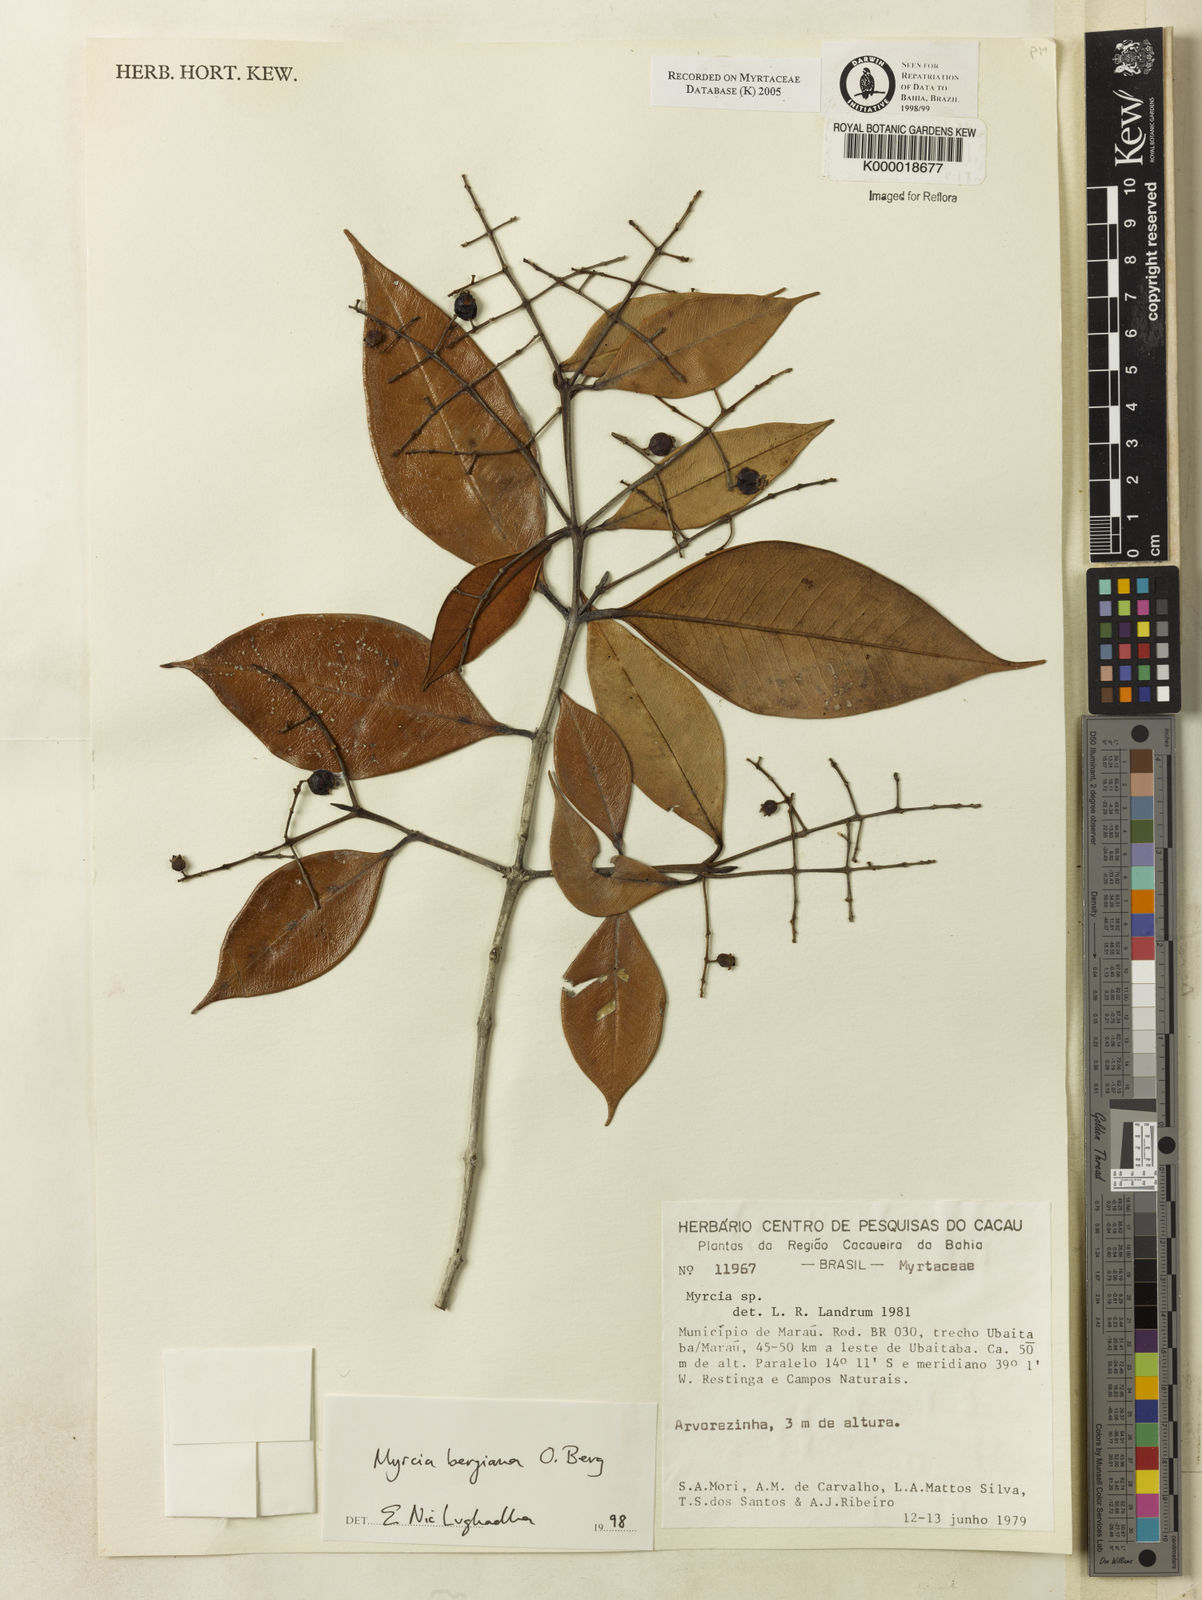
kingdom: Plantae
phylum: Tracheophyta
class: Magnoliopsida
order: Myrtales
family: Myrtaceae
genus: Myrcia
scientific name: Myrcia bergiana
